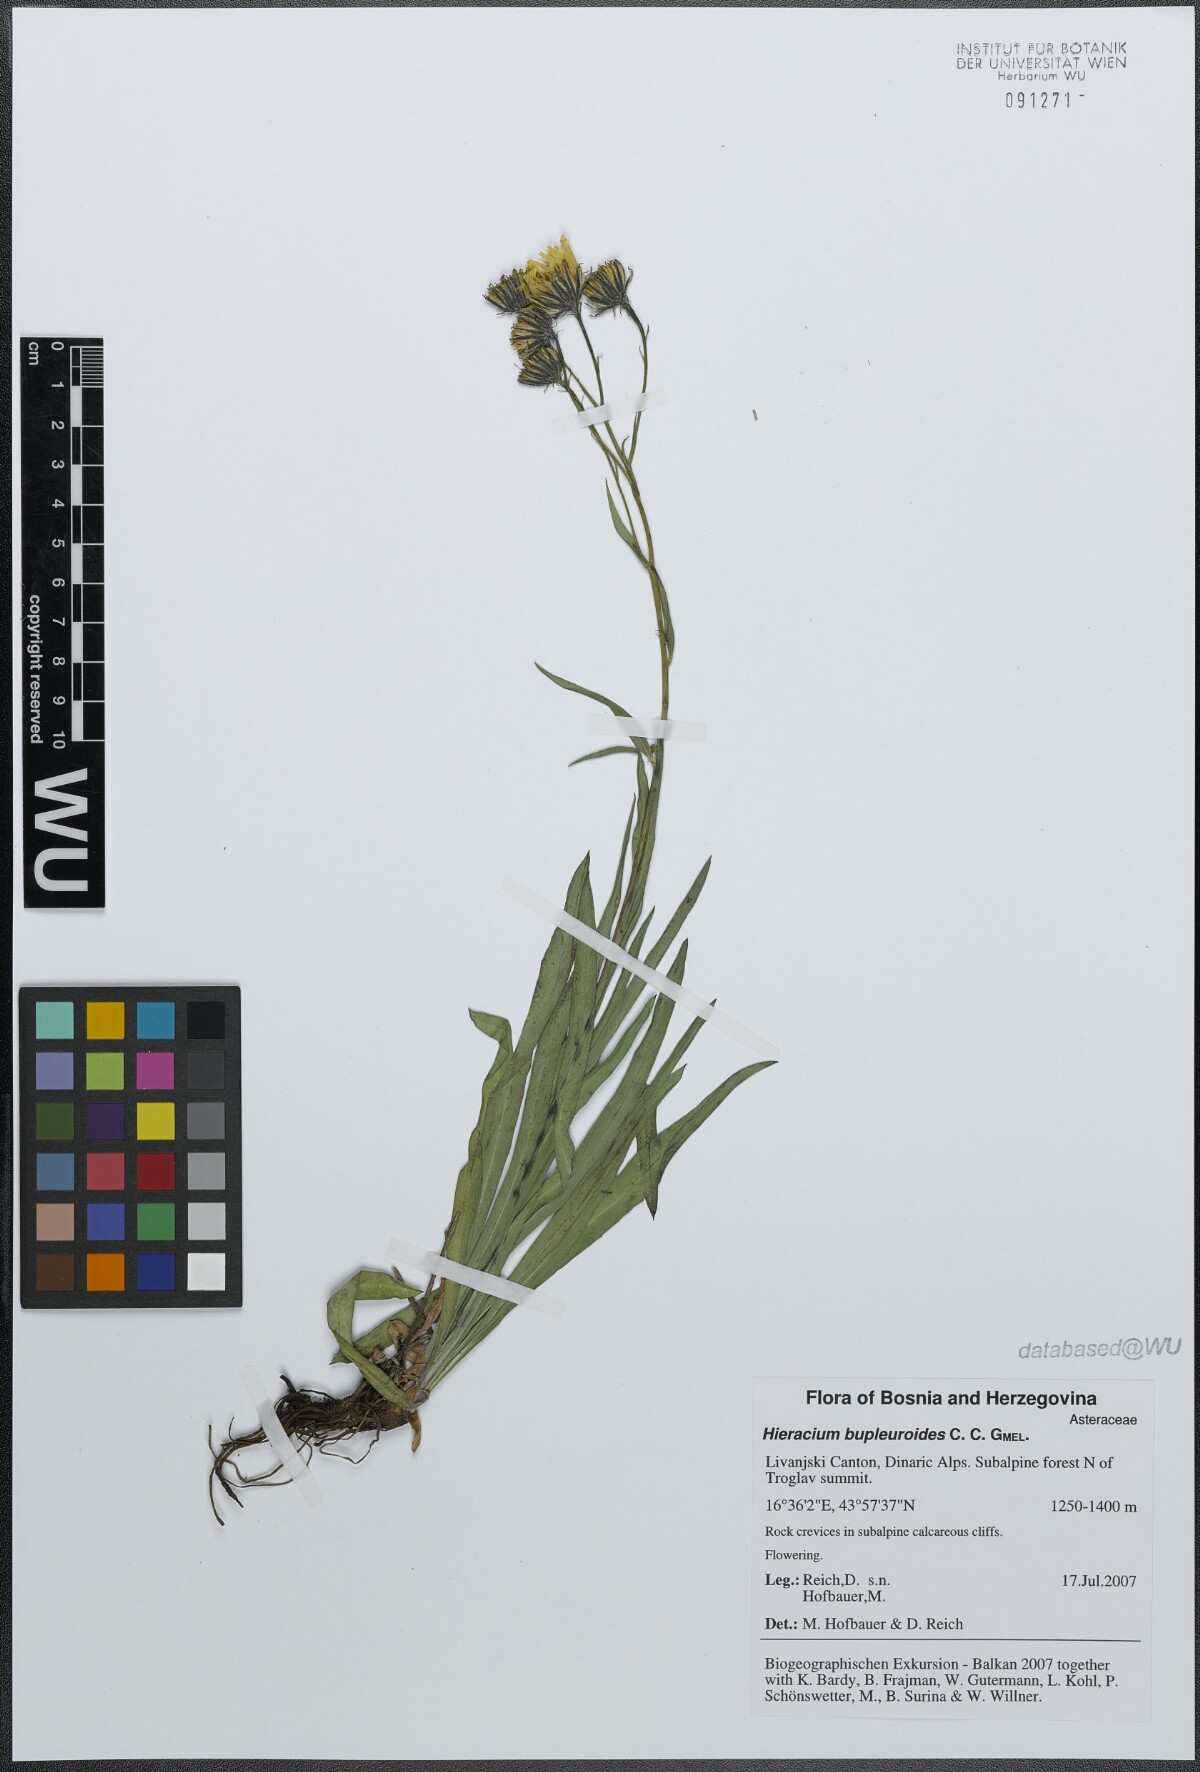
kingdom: Plantae
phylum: Tracheophyta
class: Magnoliopsida
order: Asterales
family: Asteraceae
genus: Hieracium
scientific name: Hieracium bupleuroides
